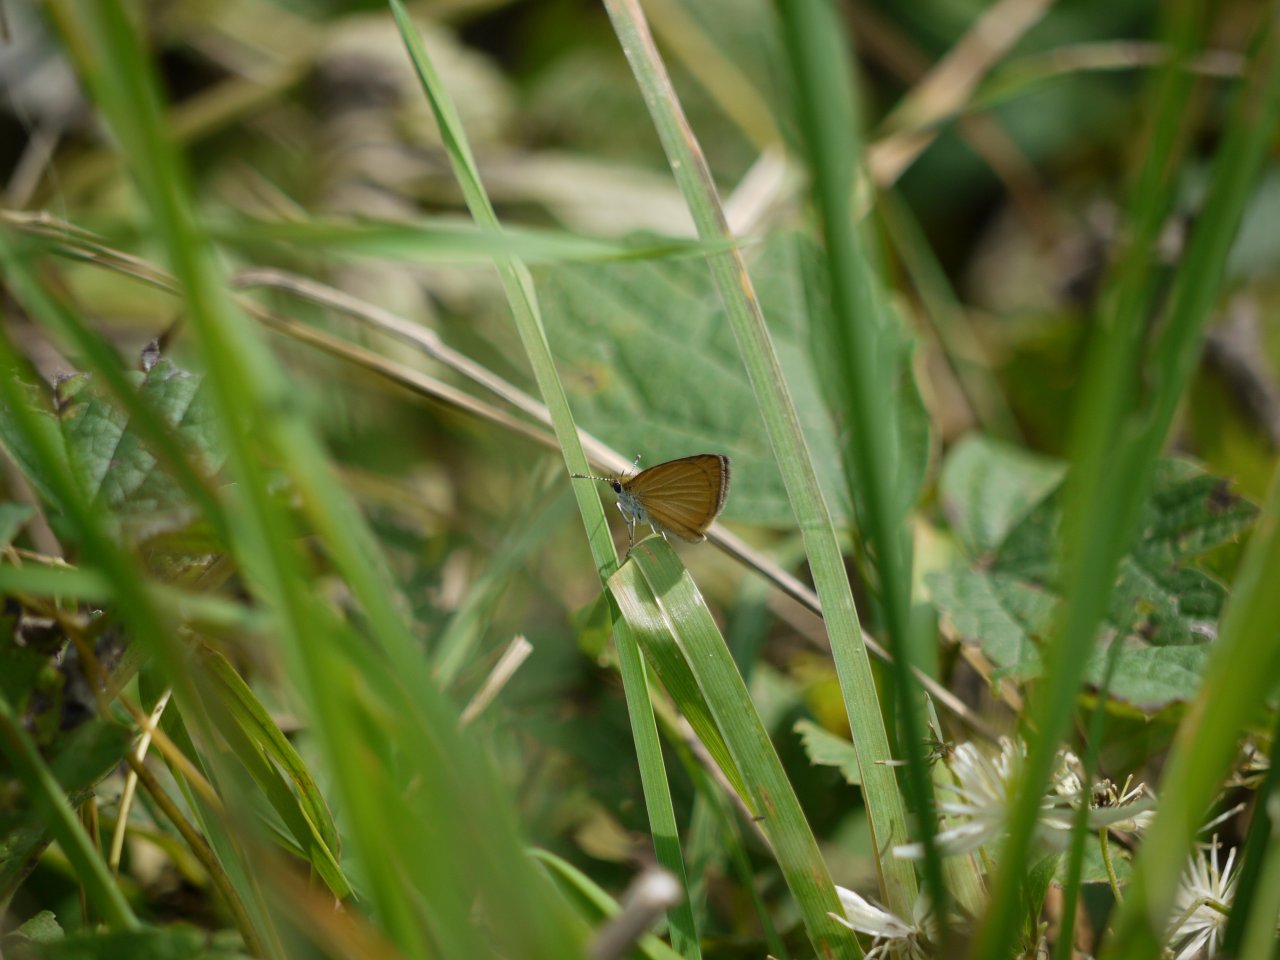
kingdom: Animalia
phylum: Arthropoda
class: Insecta
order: Lepidoptera
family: Hesperiidae
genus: Ancyloxypha
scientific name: Ancyloxypha numitor
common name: Least Skipper
